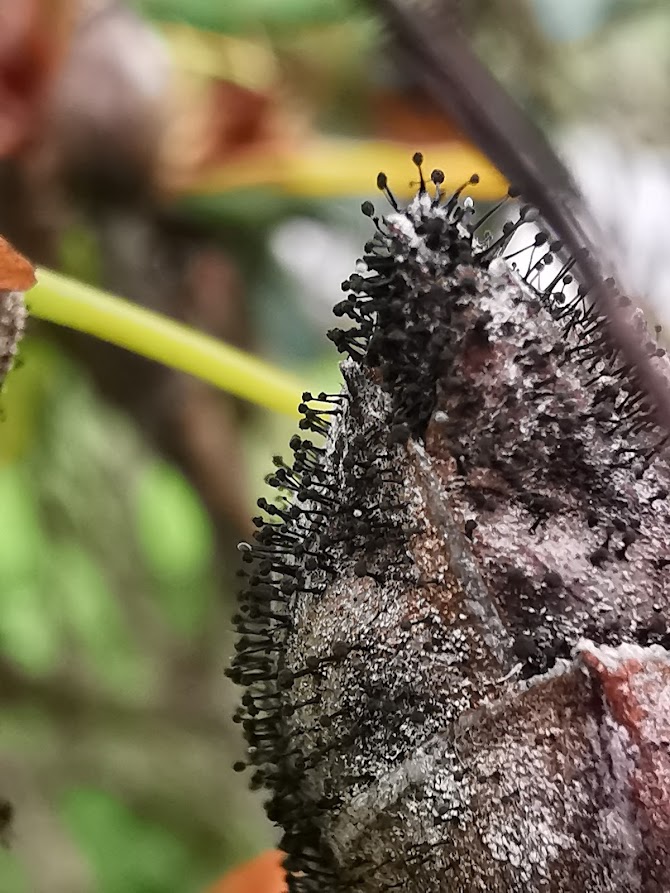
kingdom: Fungi
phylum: Ascomycota
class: Dothideomycetes
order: Pleosporales
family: Melanommataceae
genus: Seifertia
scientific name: Seifertia azaleae
